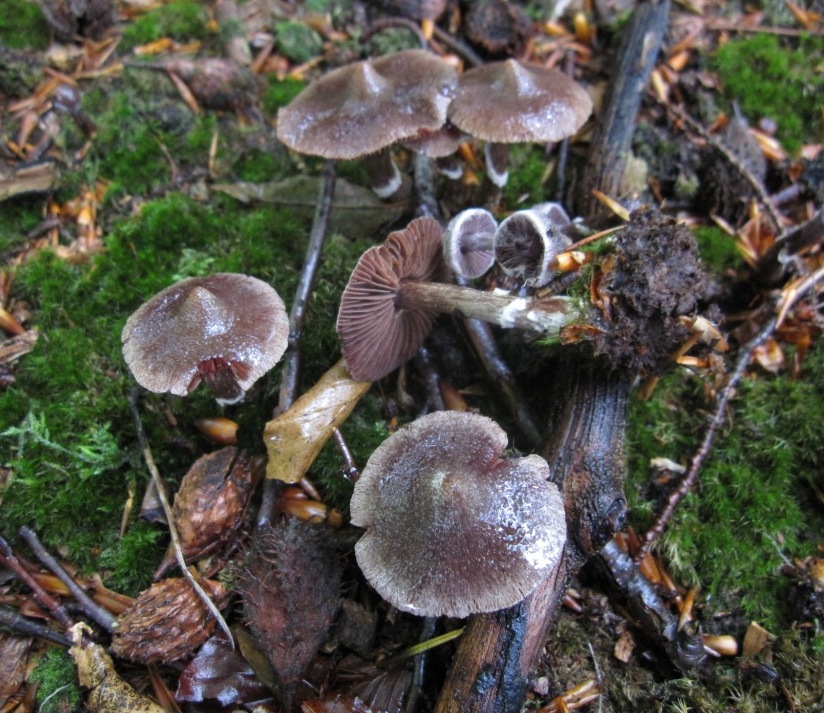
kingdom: Fungi
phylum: Basidiomycota
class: Agaricomycetes
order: Agaricales
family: Cortinariaceae
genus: Cortinarius
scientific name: Cortinarius
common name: pelargonie-slørhat
